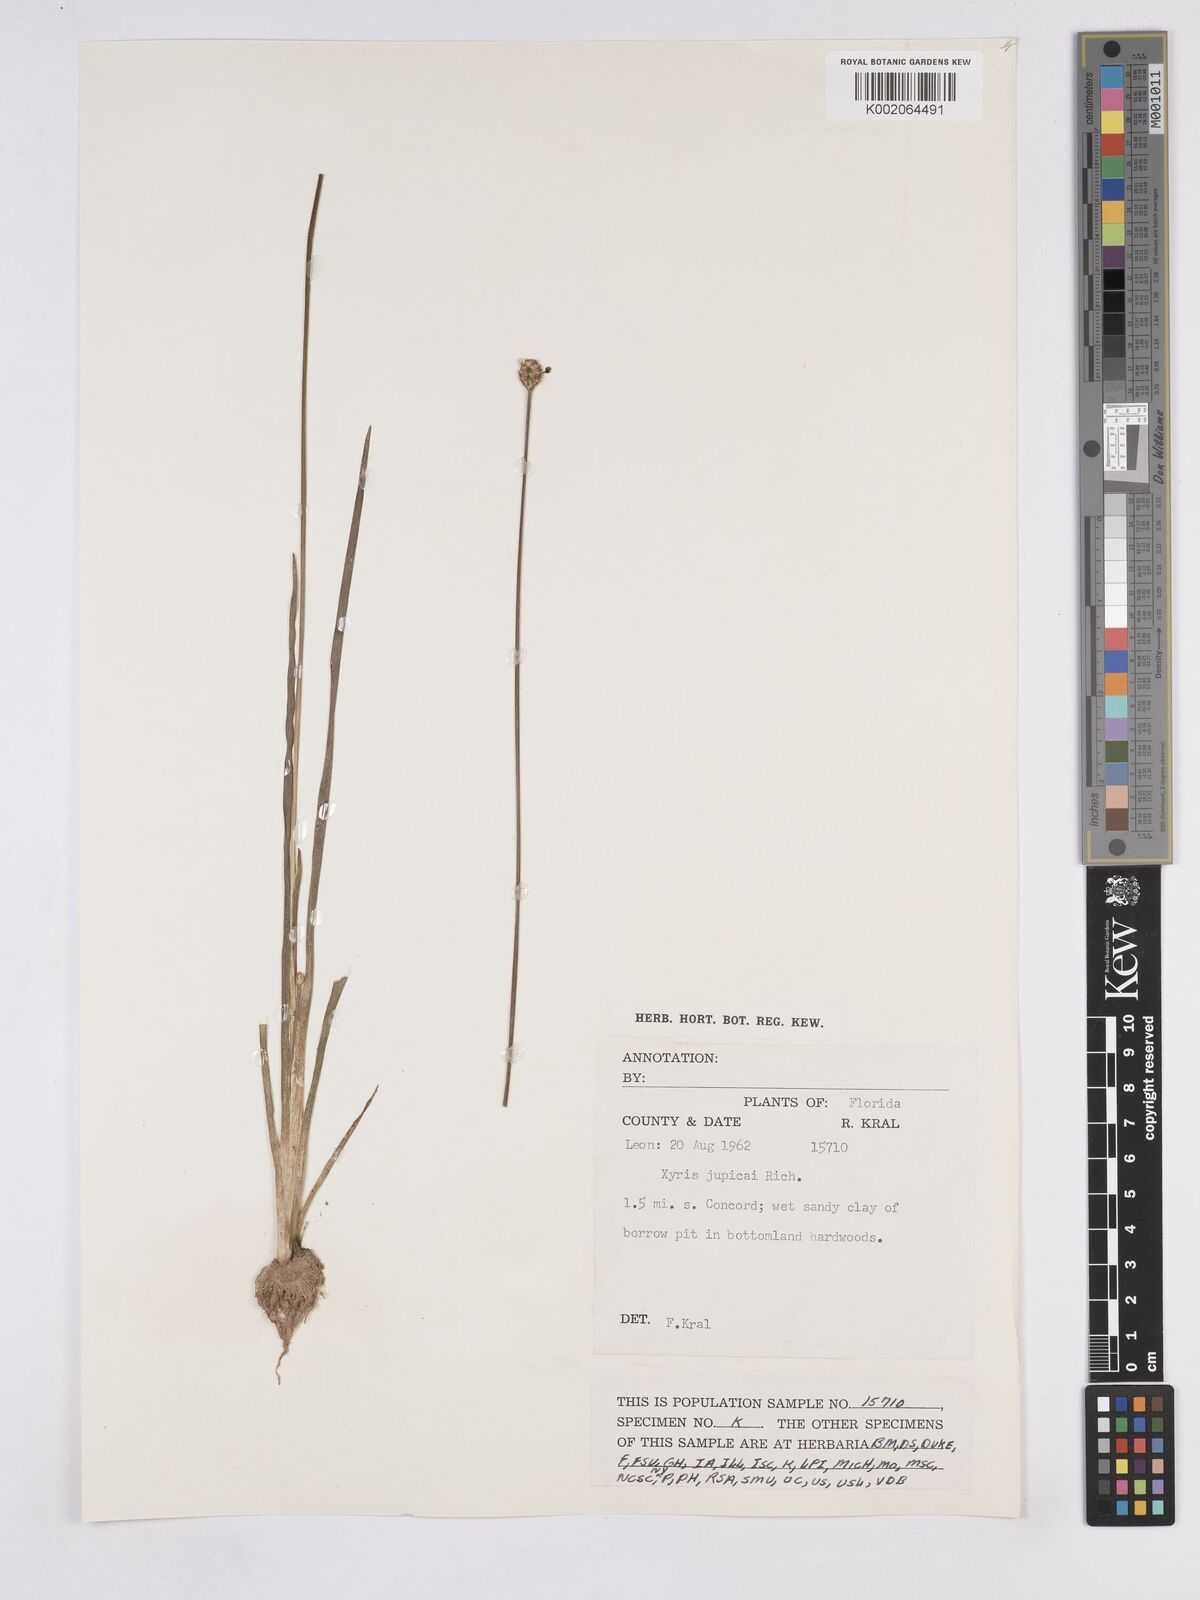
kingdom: Plantae
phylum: Tracheophyta
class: Liliopsida
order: Poales
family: Xyridaceae
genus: Xyris
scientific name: Xyris jupicai
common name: Richard's yelloweyed grass
